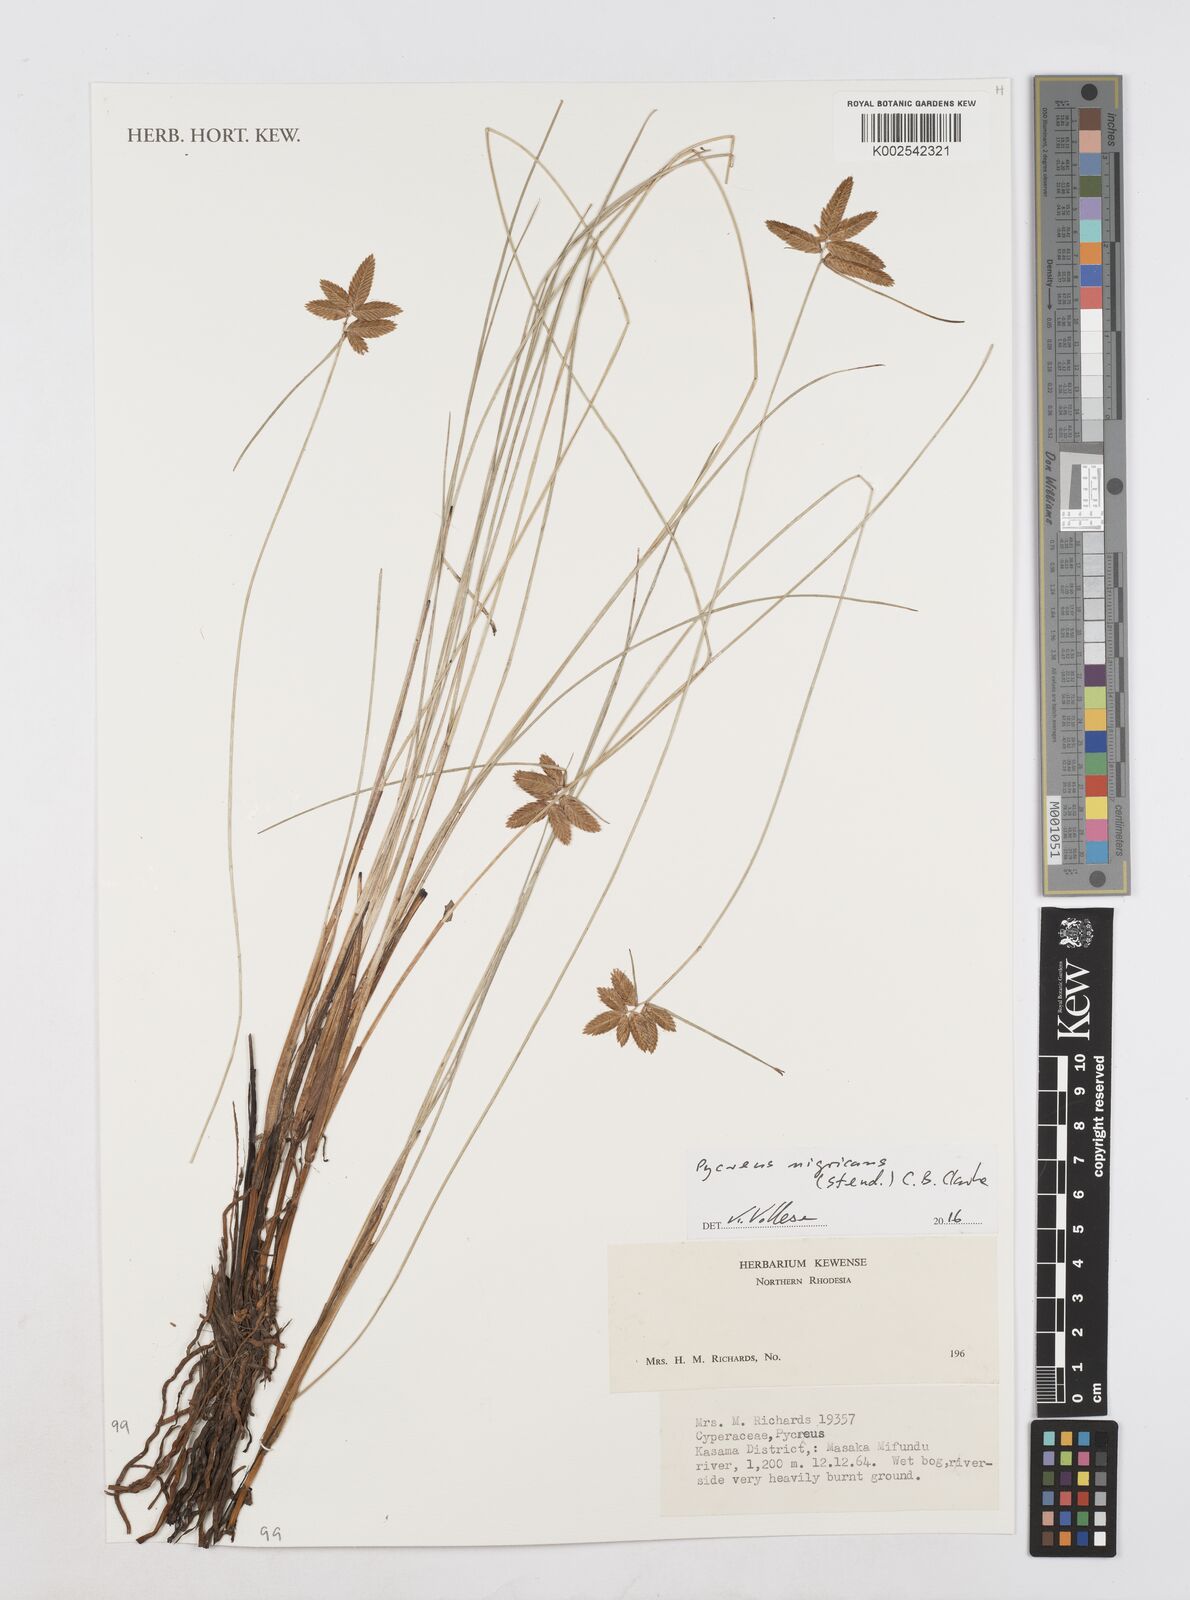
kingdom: Plantae
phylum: Tracheophyta
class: Liliopsida
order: Poales
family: Cyperaceae
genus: Cyperus
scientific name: Cyperus nigricans
